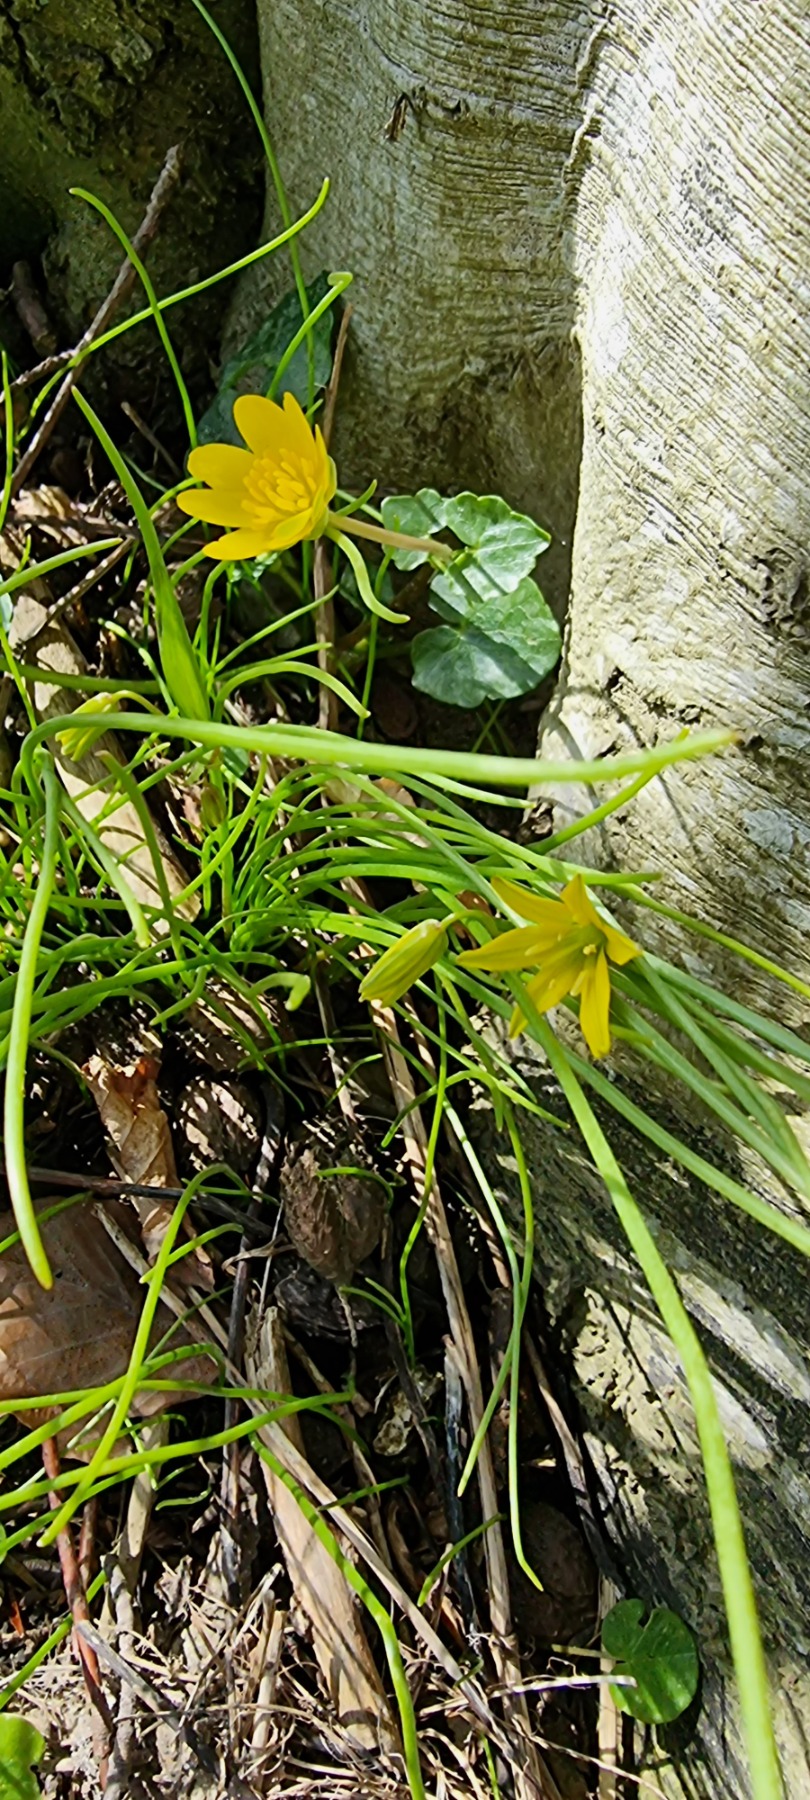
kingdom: Plantae
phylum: Tracheophyta
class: Liliopsida
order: Liliales
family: Liliaceae
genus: Gagea
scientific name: Gagea spathacea
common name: Hylster-guldstjerne
